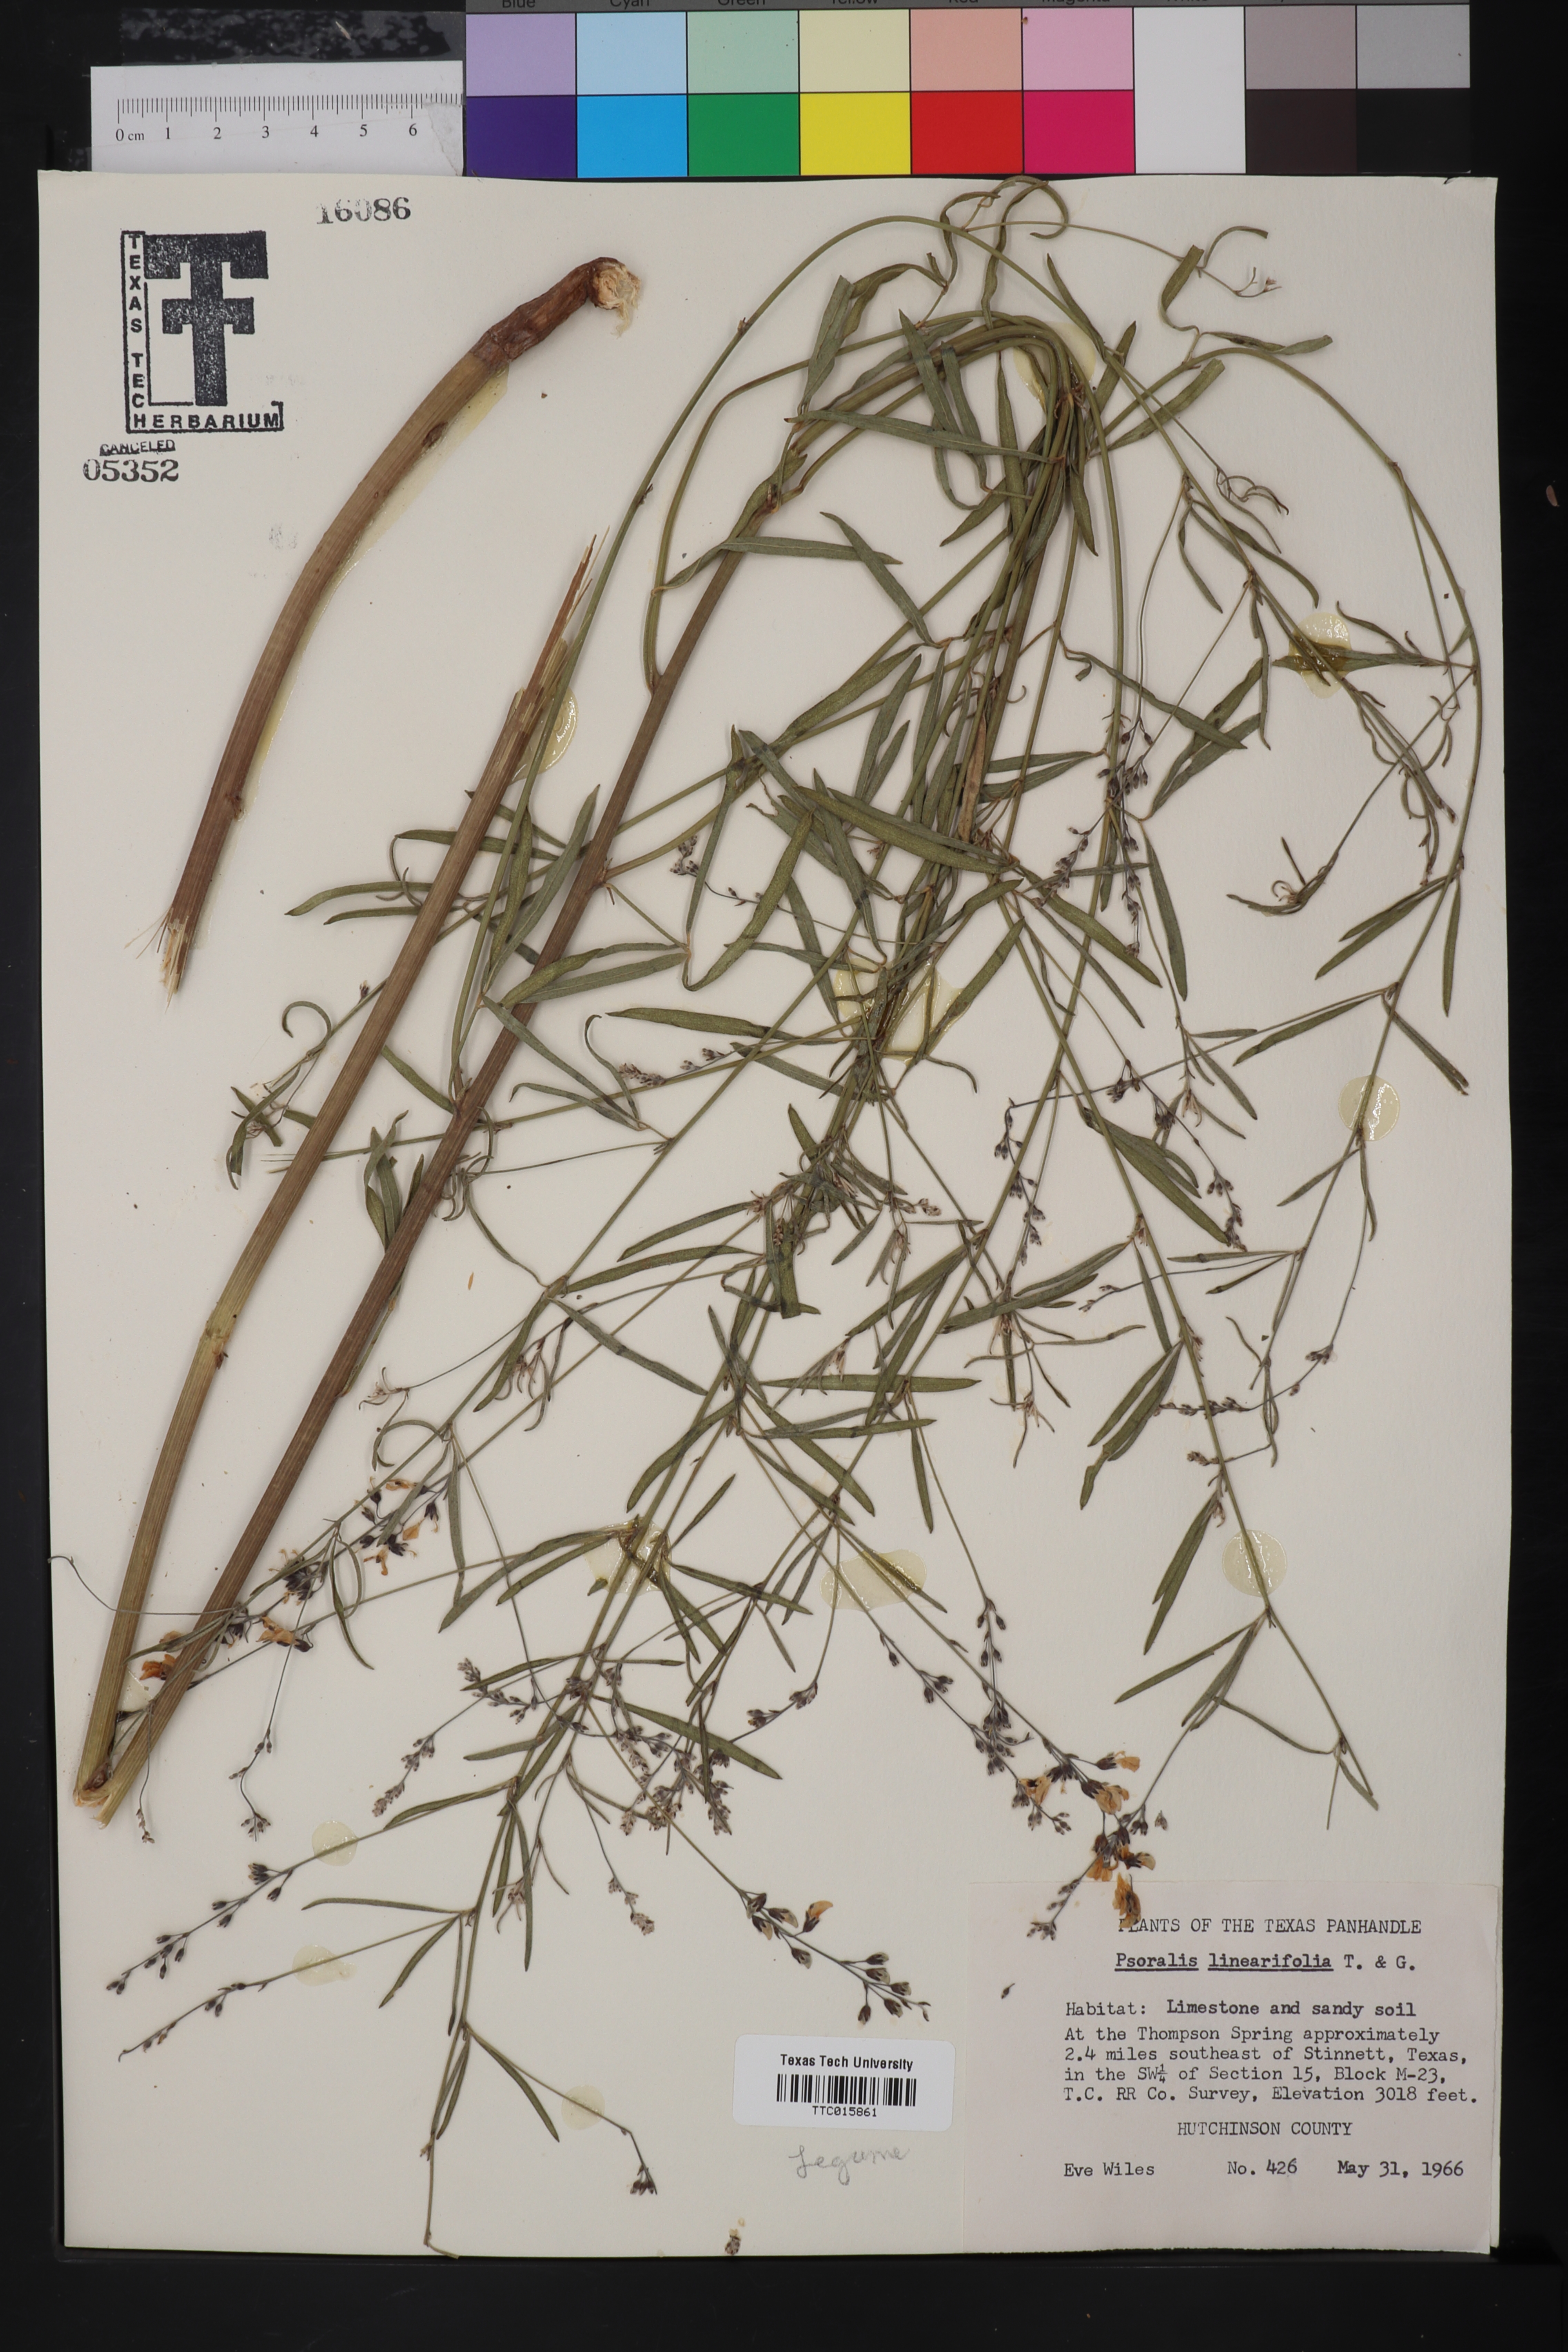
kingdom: Plantae
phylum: Tracheophyta
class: Magnoliopsida
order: Fabales
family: Fabaceae
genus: Pediomelum
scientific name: Pediomelum linearifolium
